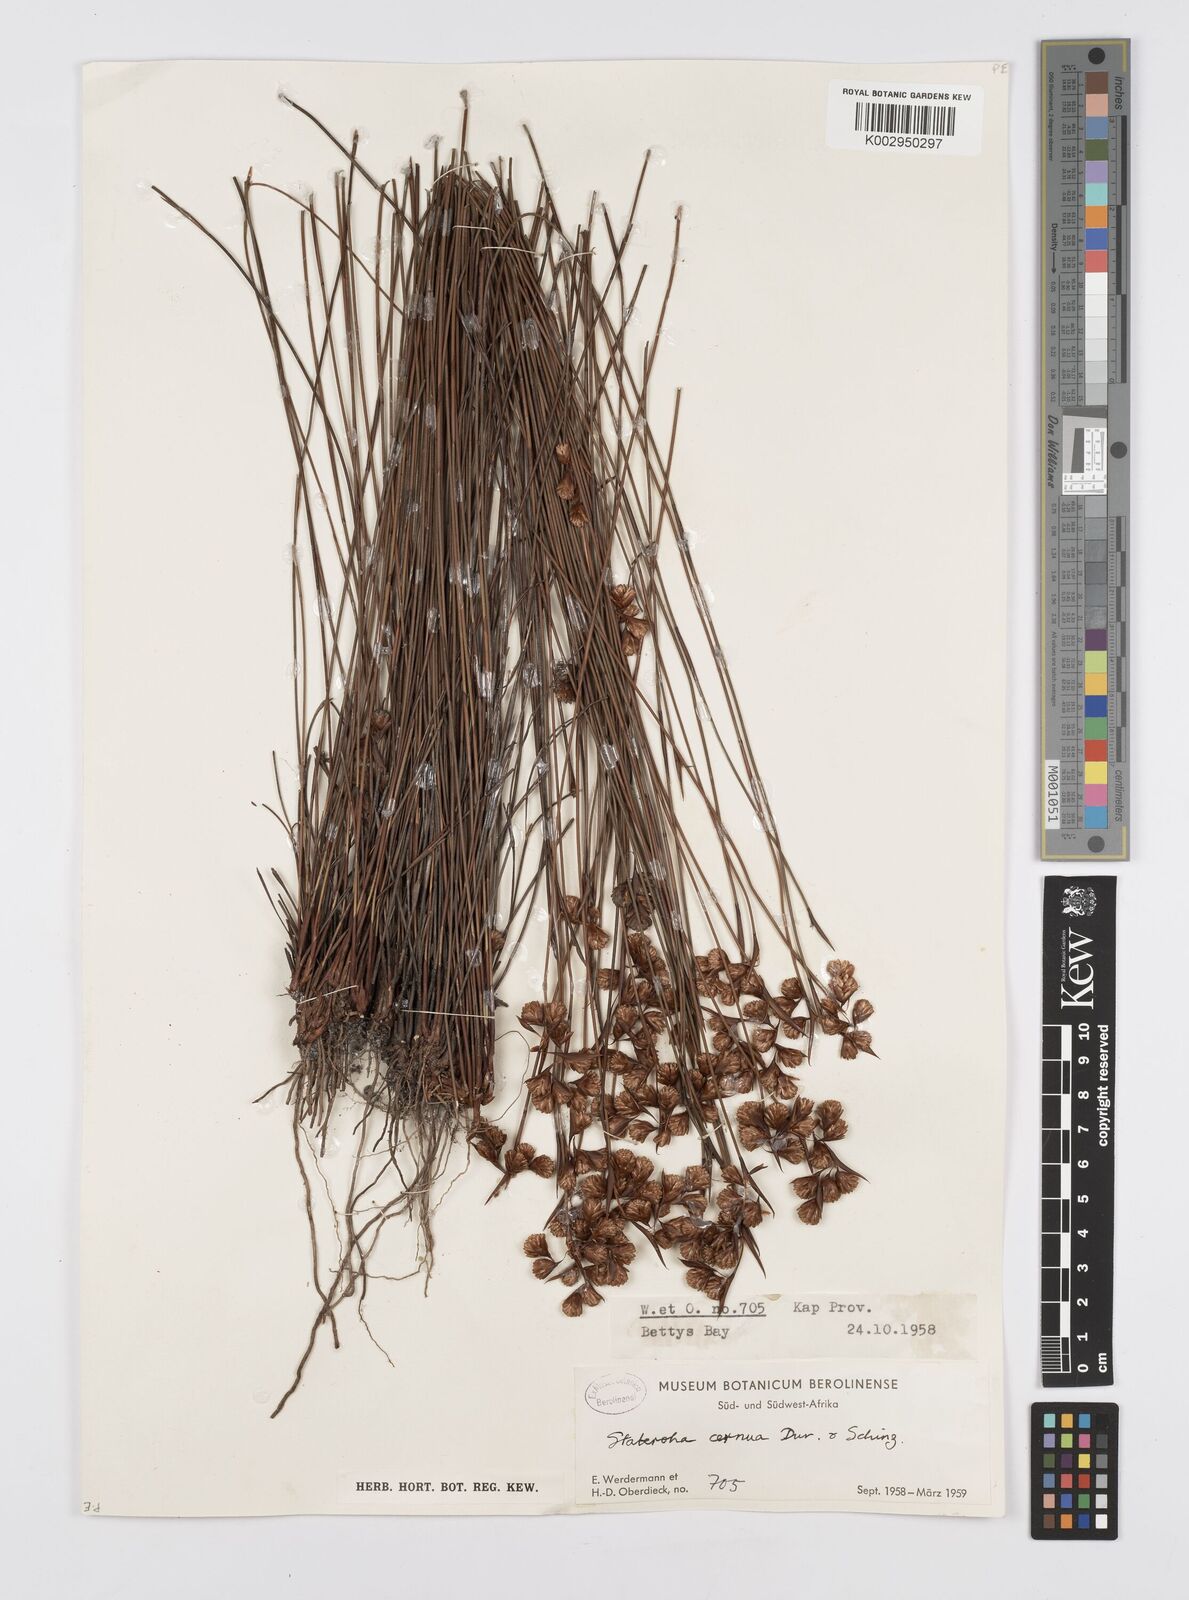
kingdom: Plantae
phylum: Tracheophyta
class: Liliopsida
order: Poales
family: Restionaceae
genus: Staberoha
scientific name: Staberoha cernua
